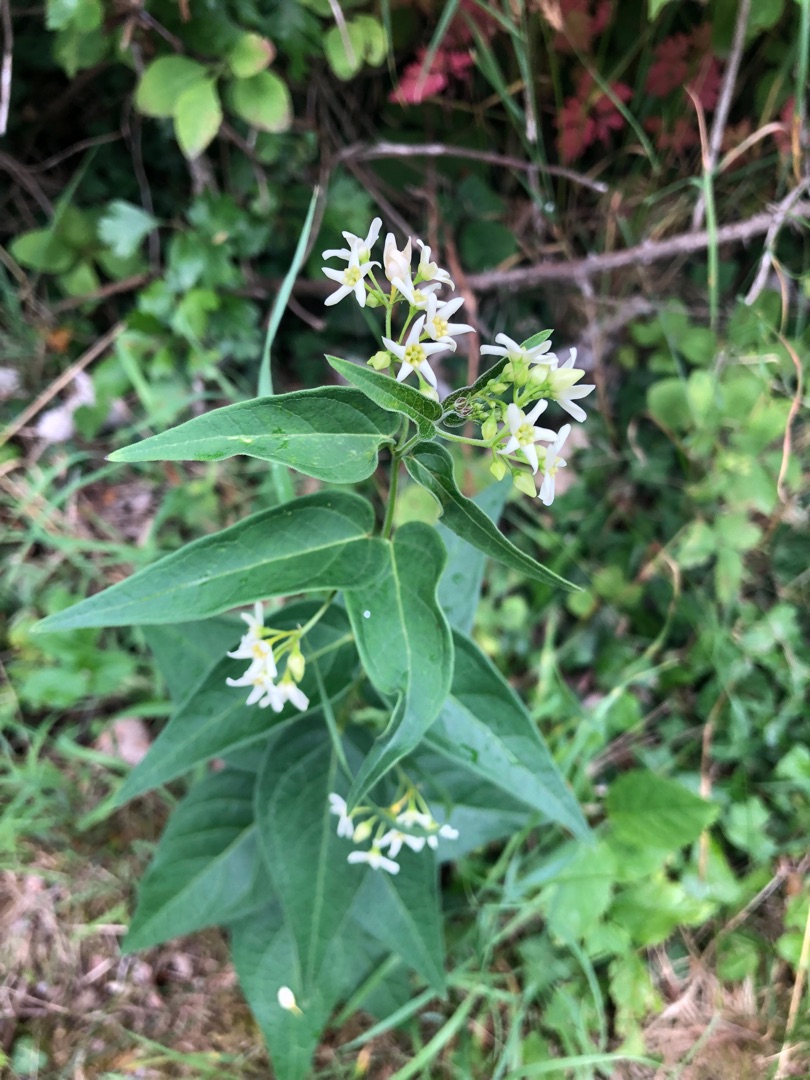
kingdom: Plantae
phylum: Tracheophyta
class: Magnoliopsida
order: Gentianales
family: Apocynaceae
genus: Vincetoxicum
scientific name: Vincetoxicum hirundinaria
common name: Svalerod
